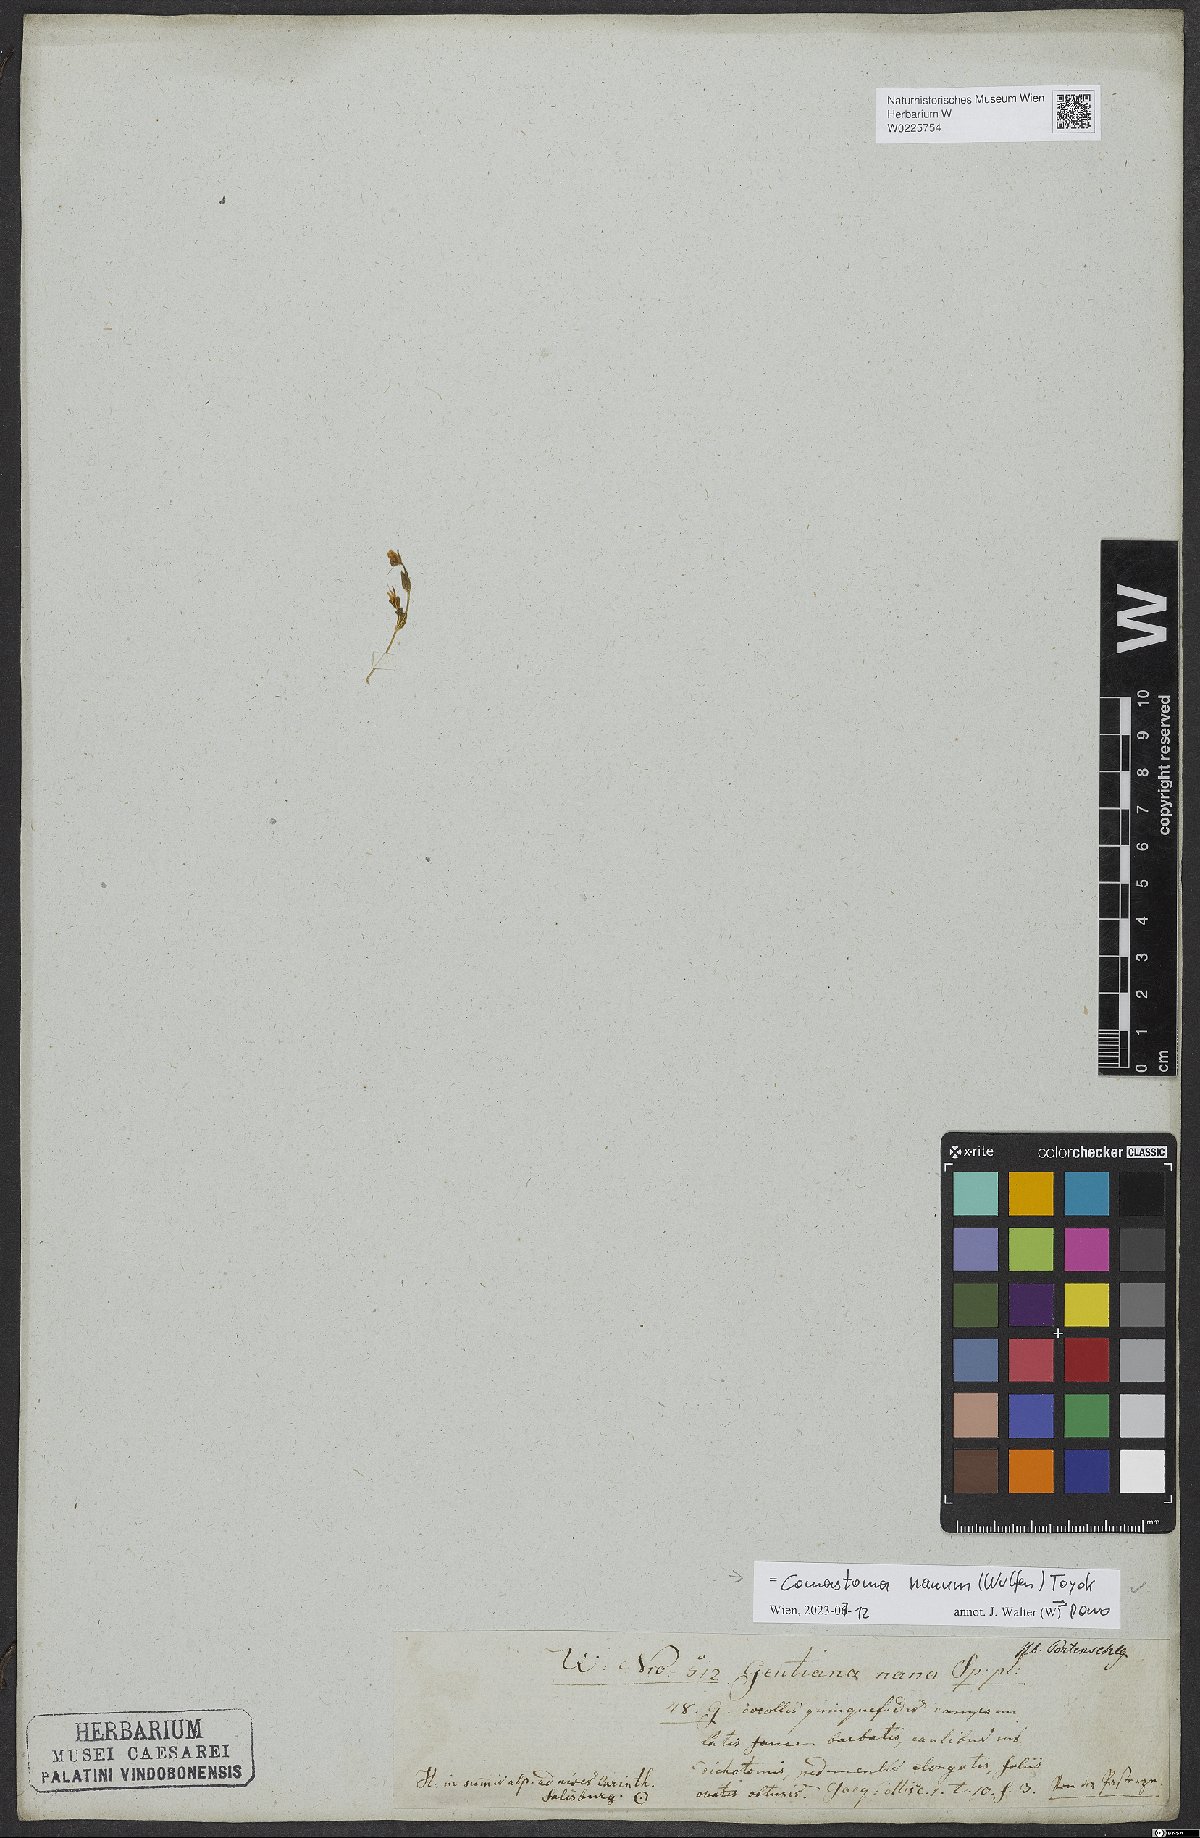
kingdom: Plantae
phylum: Tracheophyta
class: Magnoliopsida
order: Gentianales
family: Gentianaceae
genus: Comastoma
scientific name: Comastoma nanum
